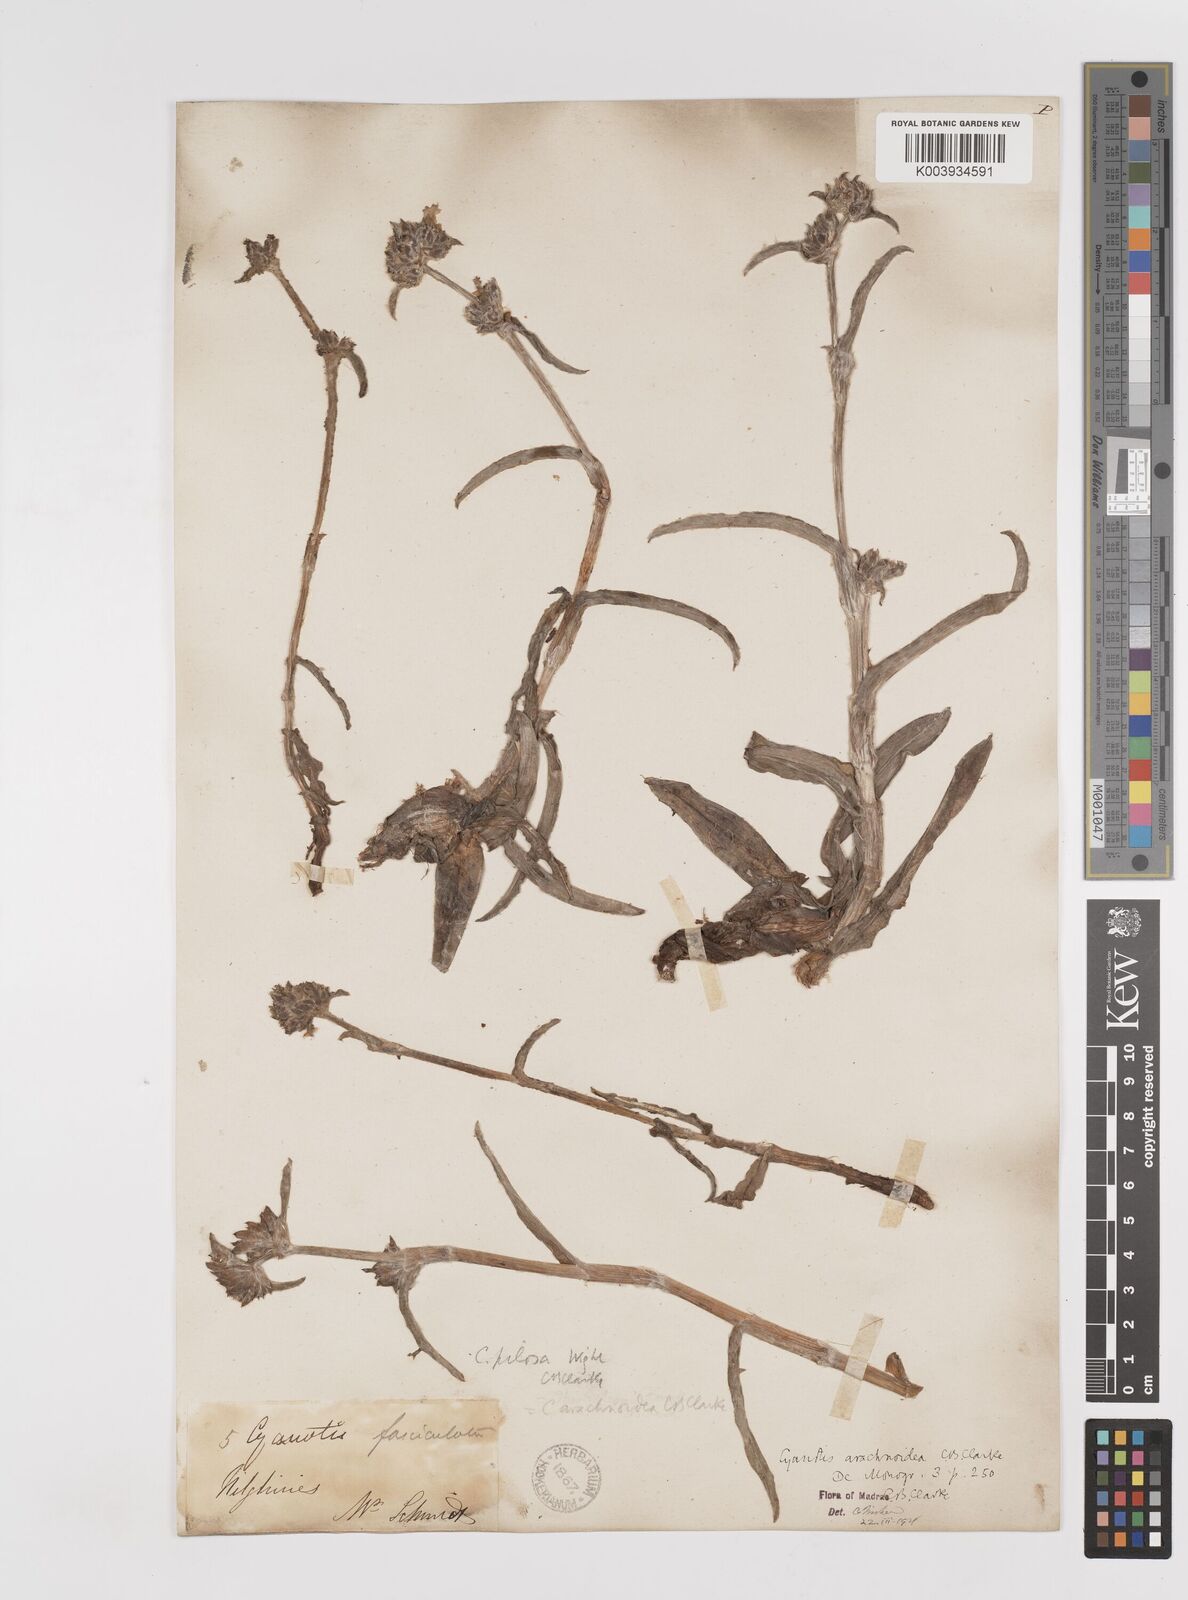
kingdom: Plantae
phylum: Tracheophyta
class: Liliopsida
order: Commelinales
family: Commelinaceae
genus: Cyanotis
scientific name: Cyanotis arachnoidea
